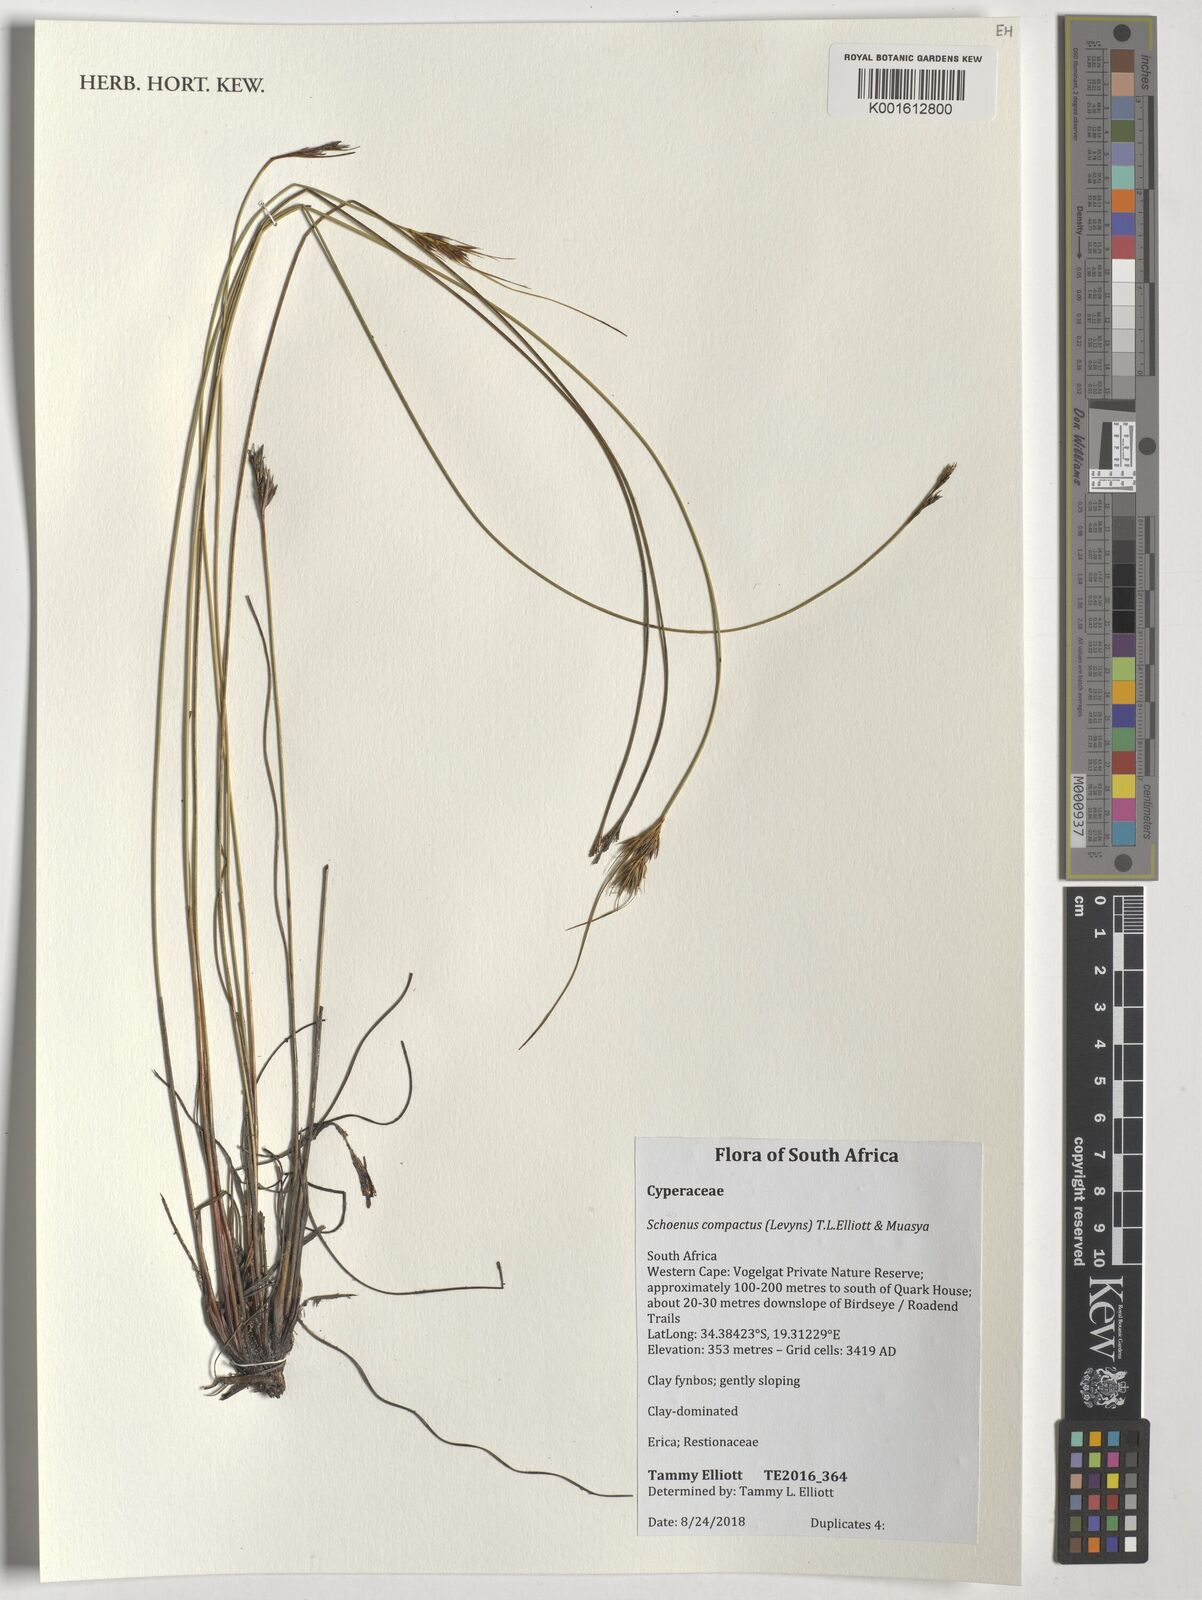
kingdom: Plantae
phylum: Tracheophyta
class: Liliopsida
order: Poales
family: Cyperaceae
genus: Schoenus
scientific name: Schoenus compactus
